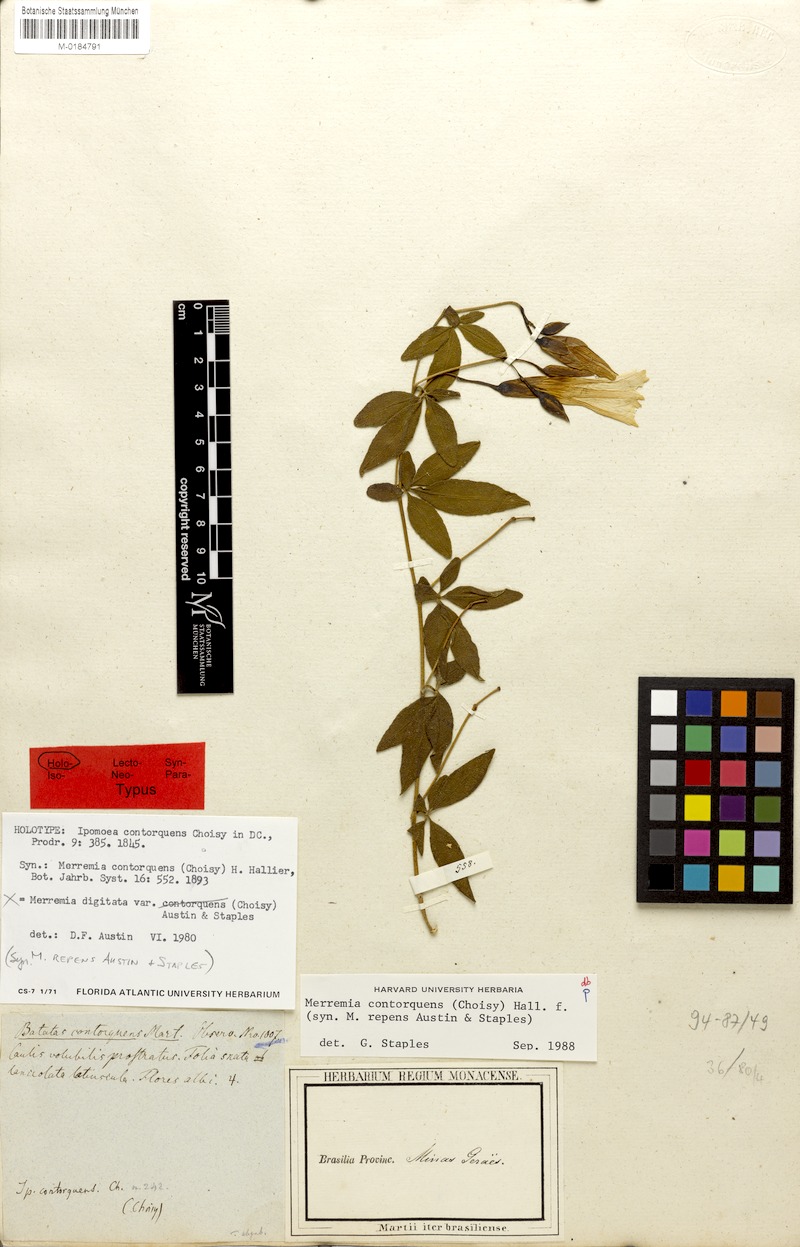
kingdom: Plantae
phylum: Tracheophyta
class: Magnoliopsida
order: Solanales
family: Convolvulaceae
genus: Distimake
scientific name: Distimake contorquens
